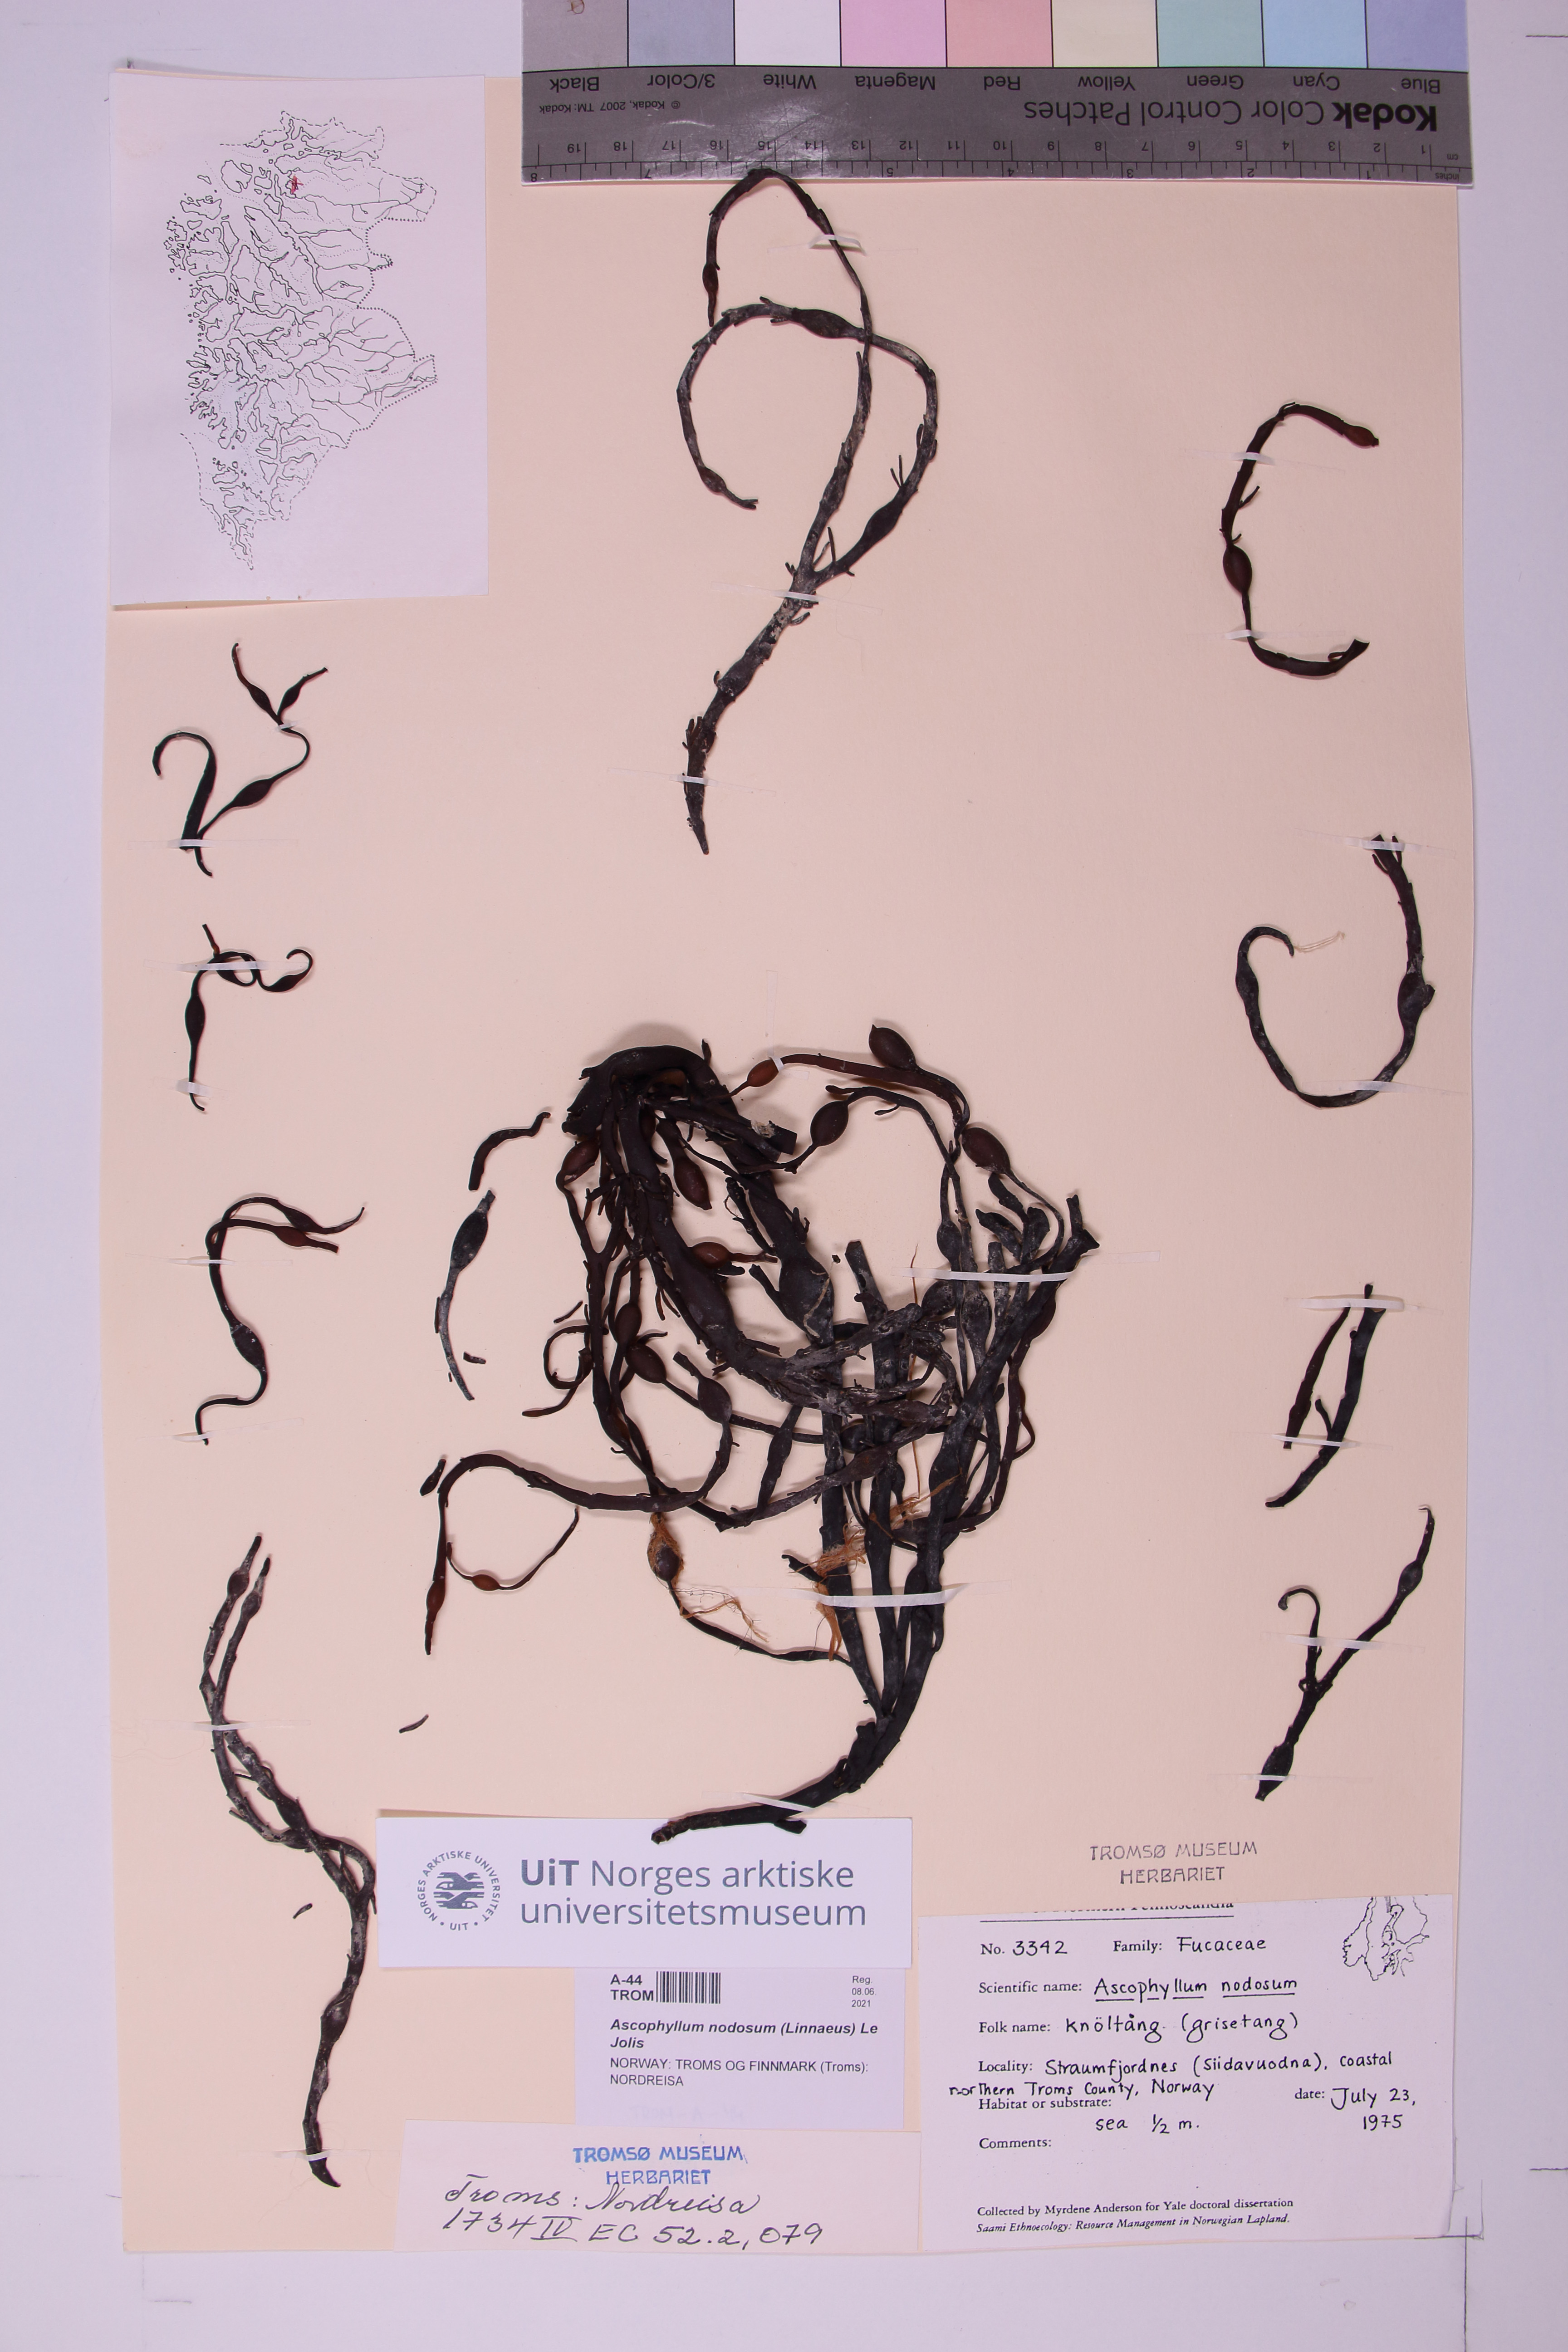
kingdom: Chromista
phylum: Ochrophyta
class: Phaeophyceae
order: Fucales
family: Fucaceae
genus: Ascophyllum
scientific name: Ascophyllum nodosum
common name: Knotted wrack
